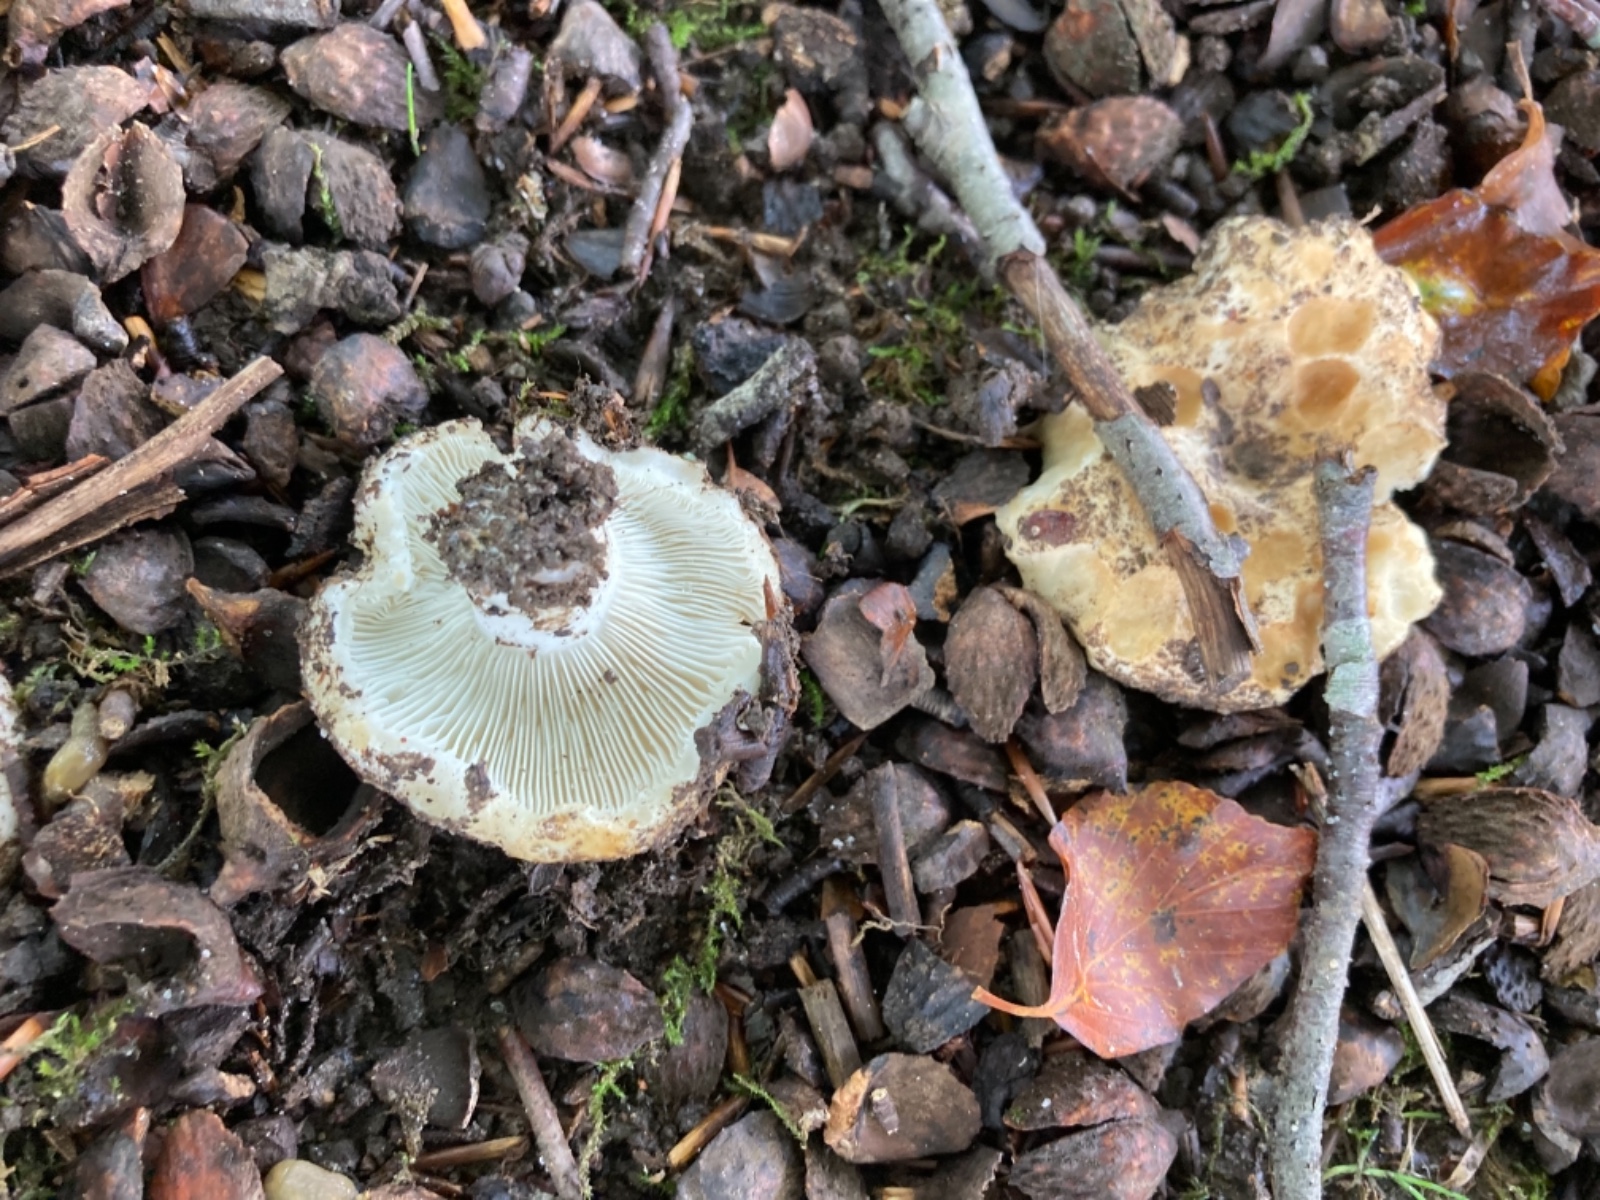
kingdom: Fungi
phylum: Basidiomycota
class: Agaricomycetes
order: Russulales
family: Russulaceae
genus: Russula
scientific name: Russula chloroides
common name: grønhalset tragt-skørhat
